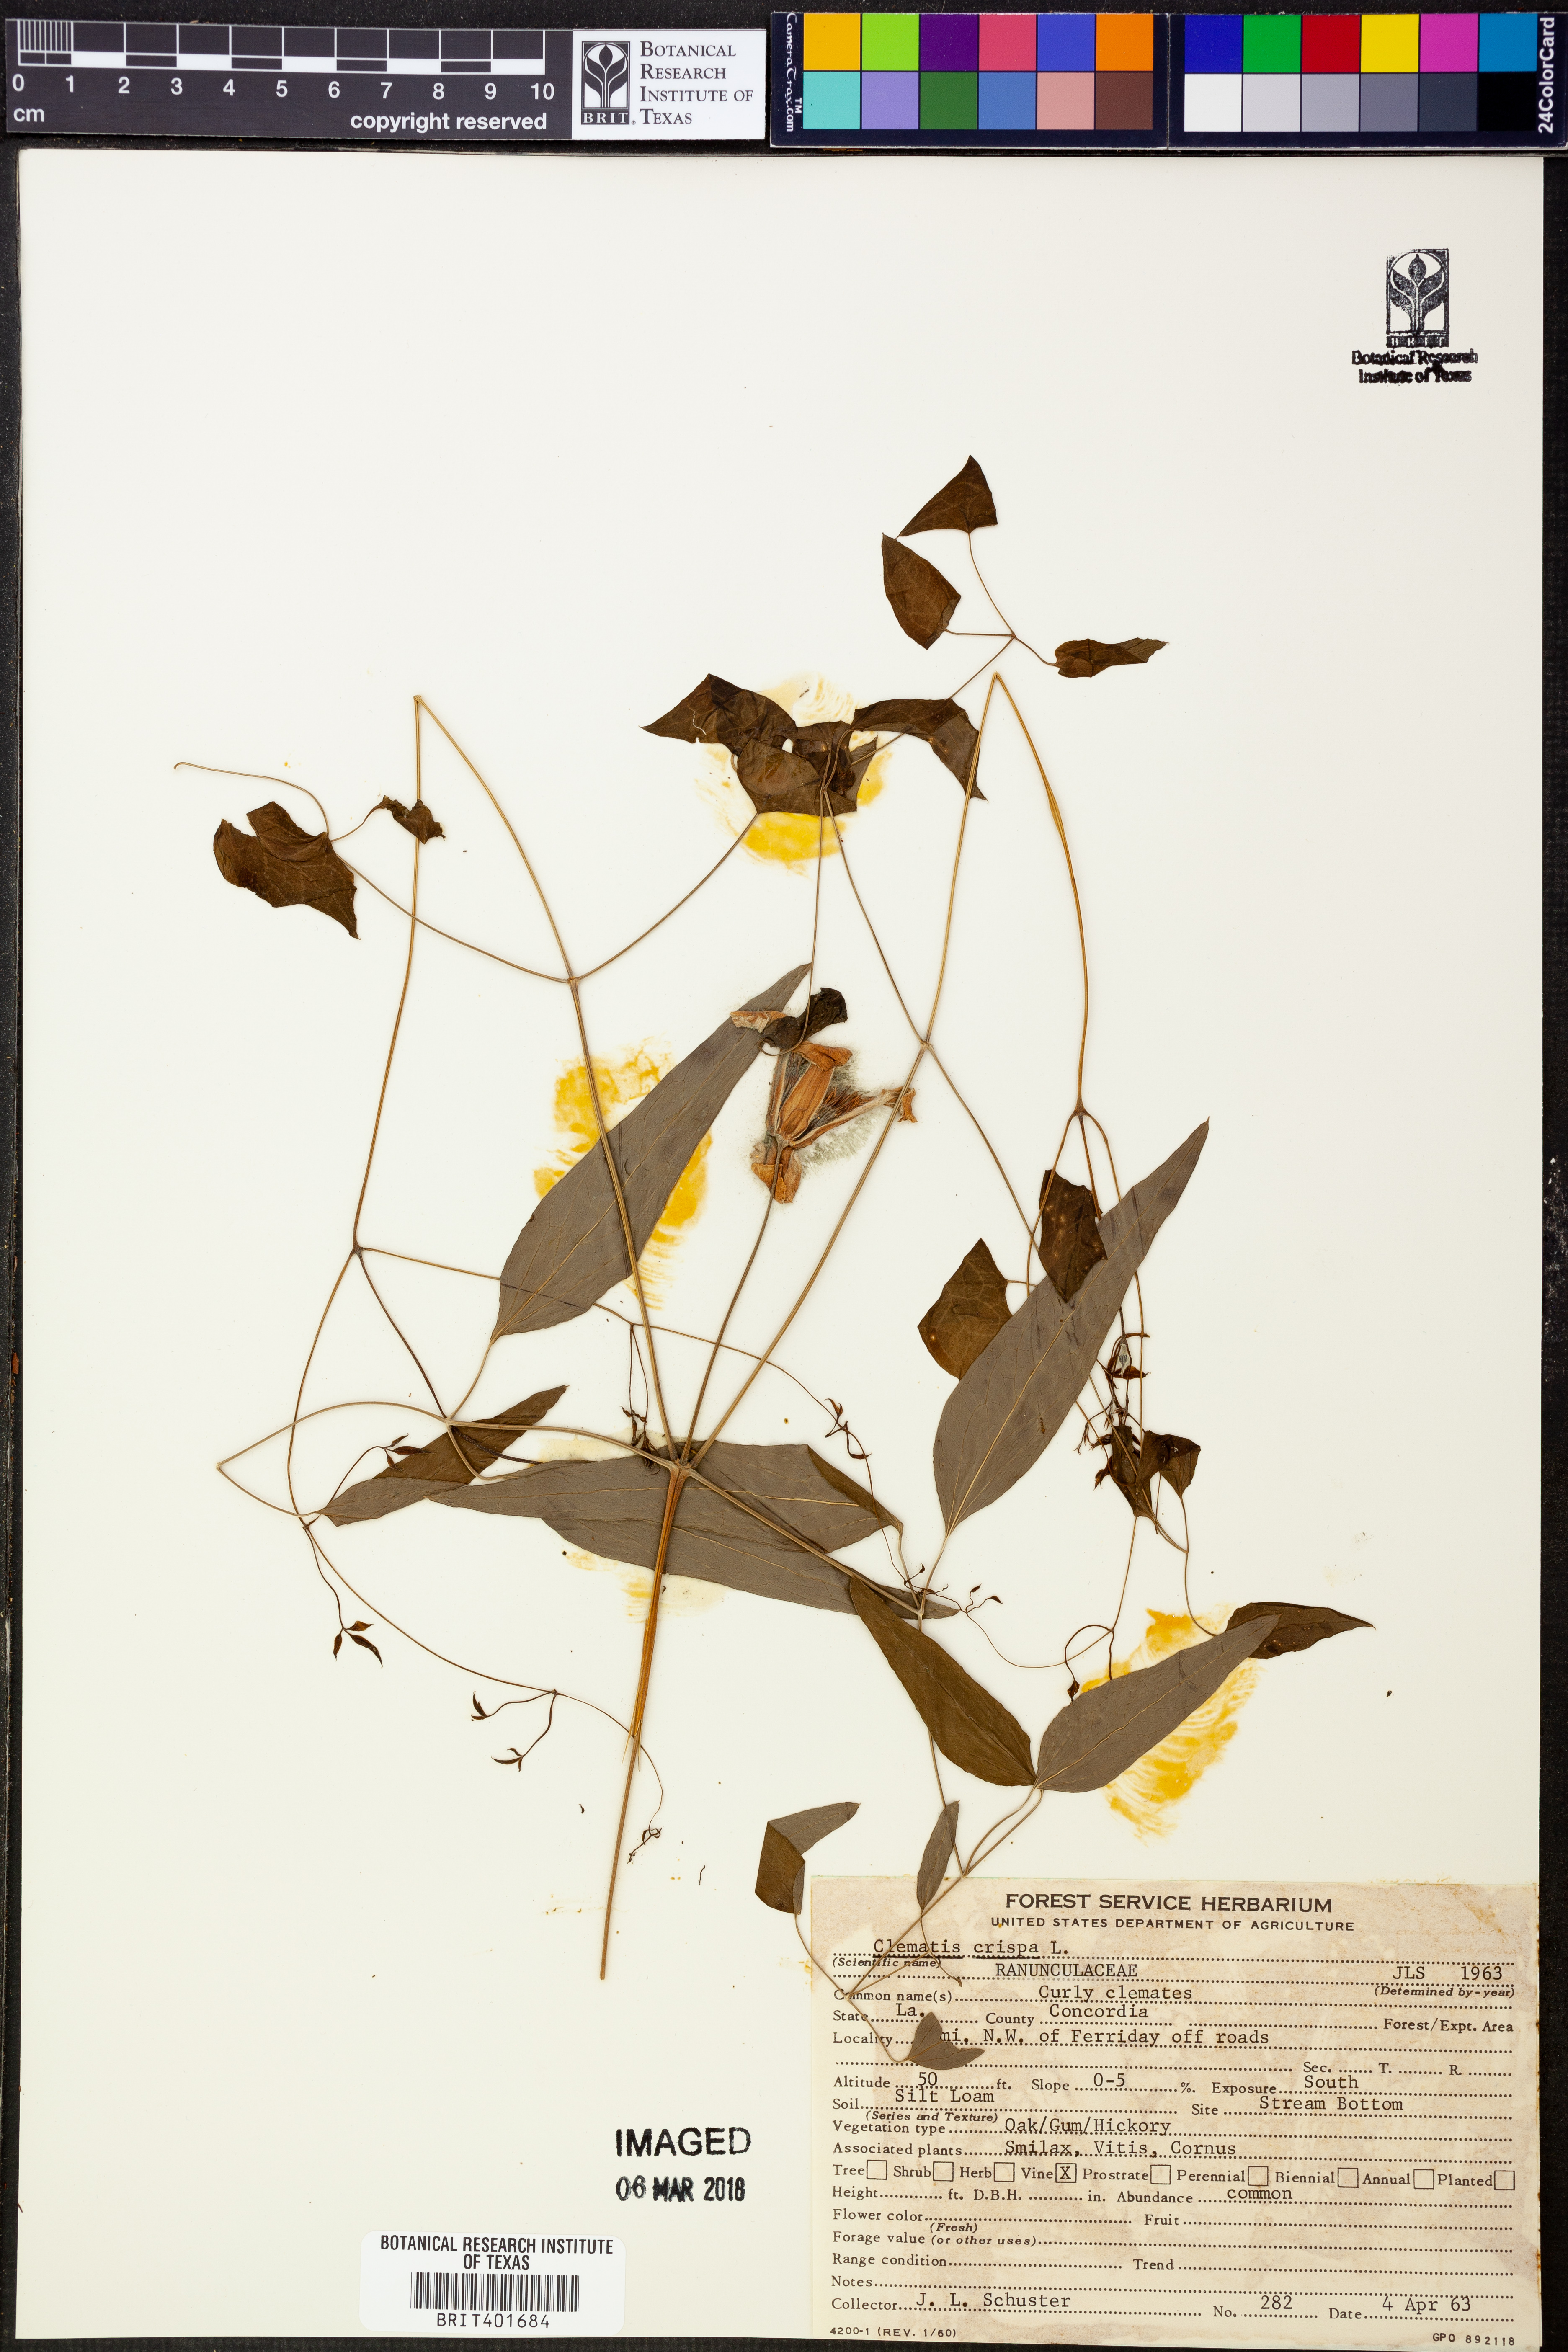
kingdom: Plantae
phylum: Tracheophyta
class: Magnoliopsida
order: Ranunculales
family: Ranunculaceae
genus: Clematis
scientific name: Clematis crispa
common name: Curly clematis
